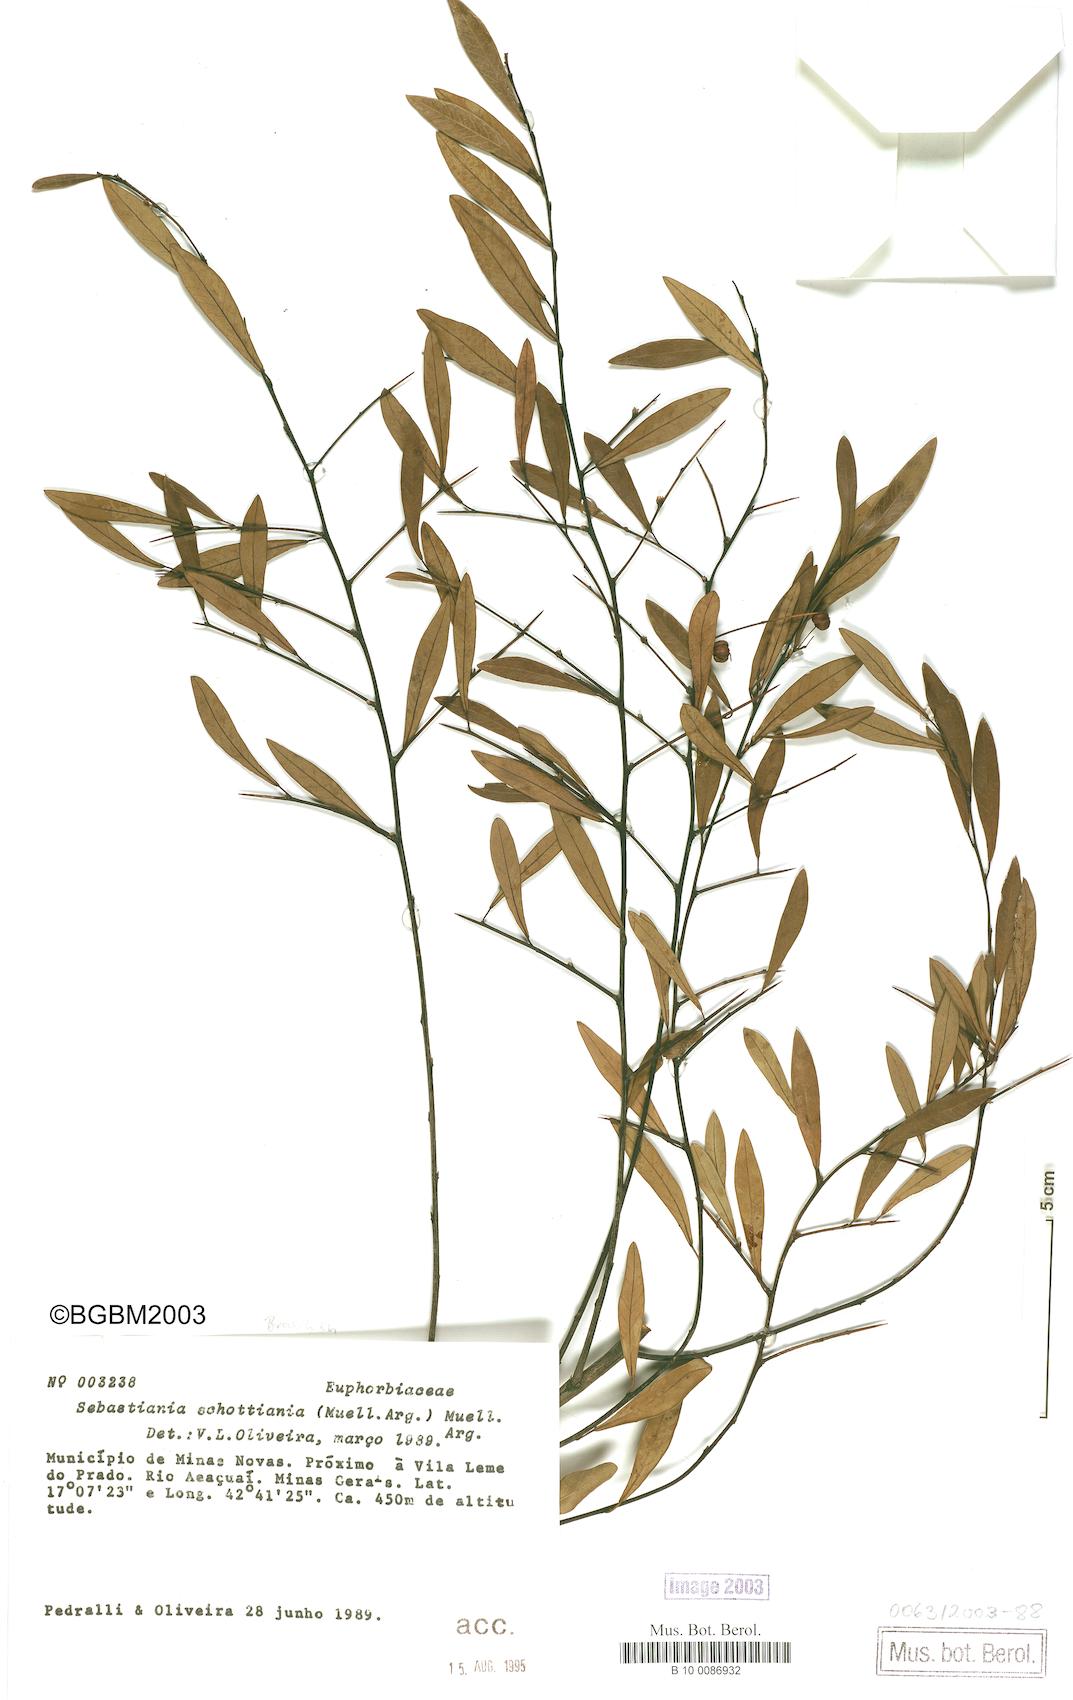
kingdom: Plantae
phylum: Tracheophyta
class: Magnoliopsida
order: Malpighiales
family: Euphorbiaceae
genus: Sebastiania
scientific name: Sebastiania schottiana
